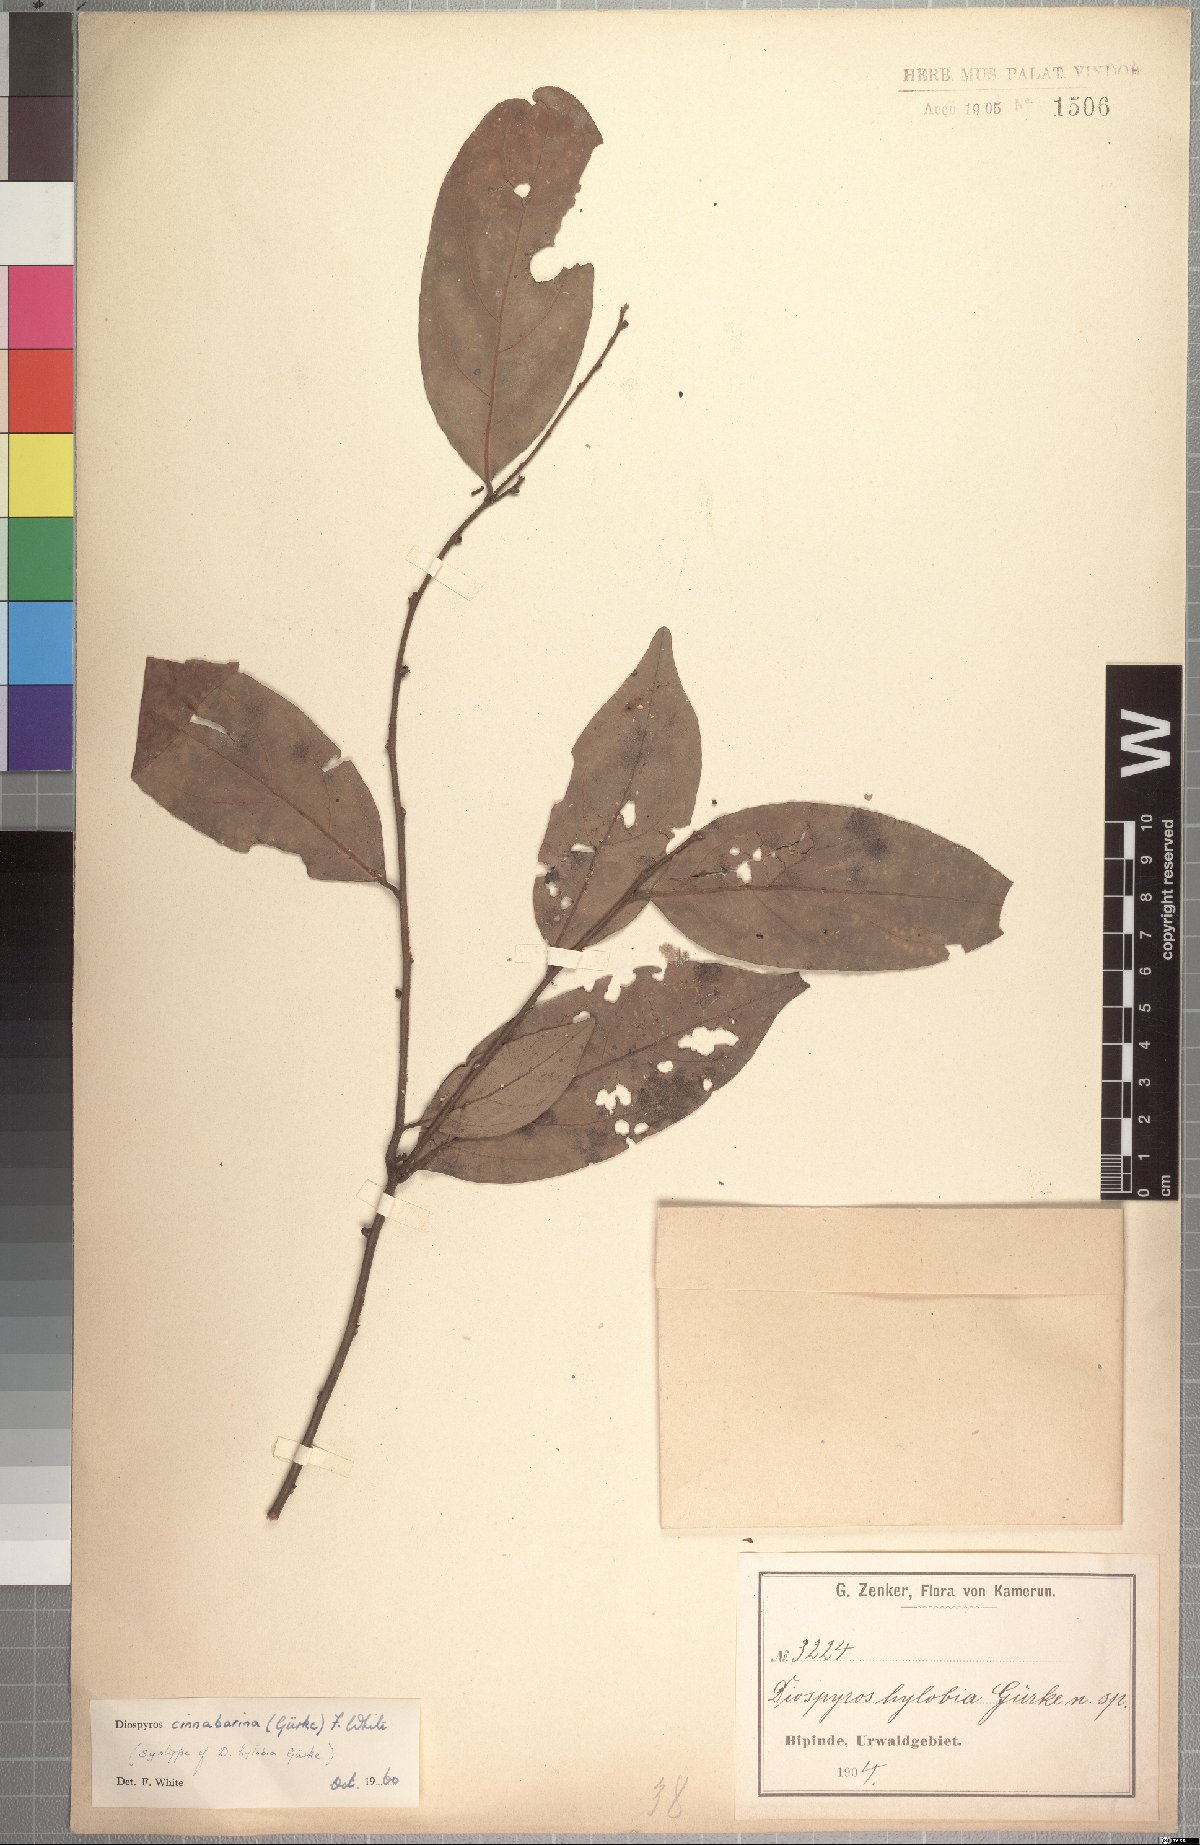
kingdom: Plantae
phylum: Tracheophyta
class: Magnoliopsida
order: Ericales
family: Ebenaceae
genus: Diospyros
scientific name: Diospyros cinnabarina
